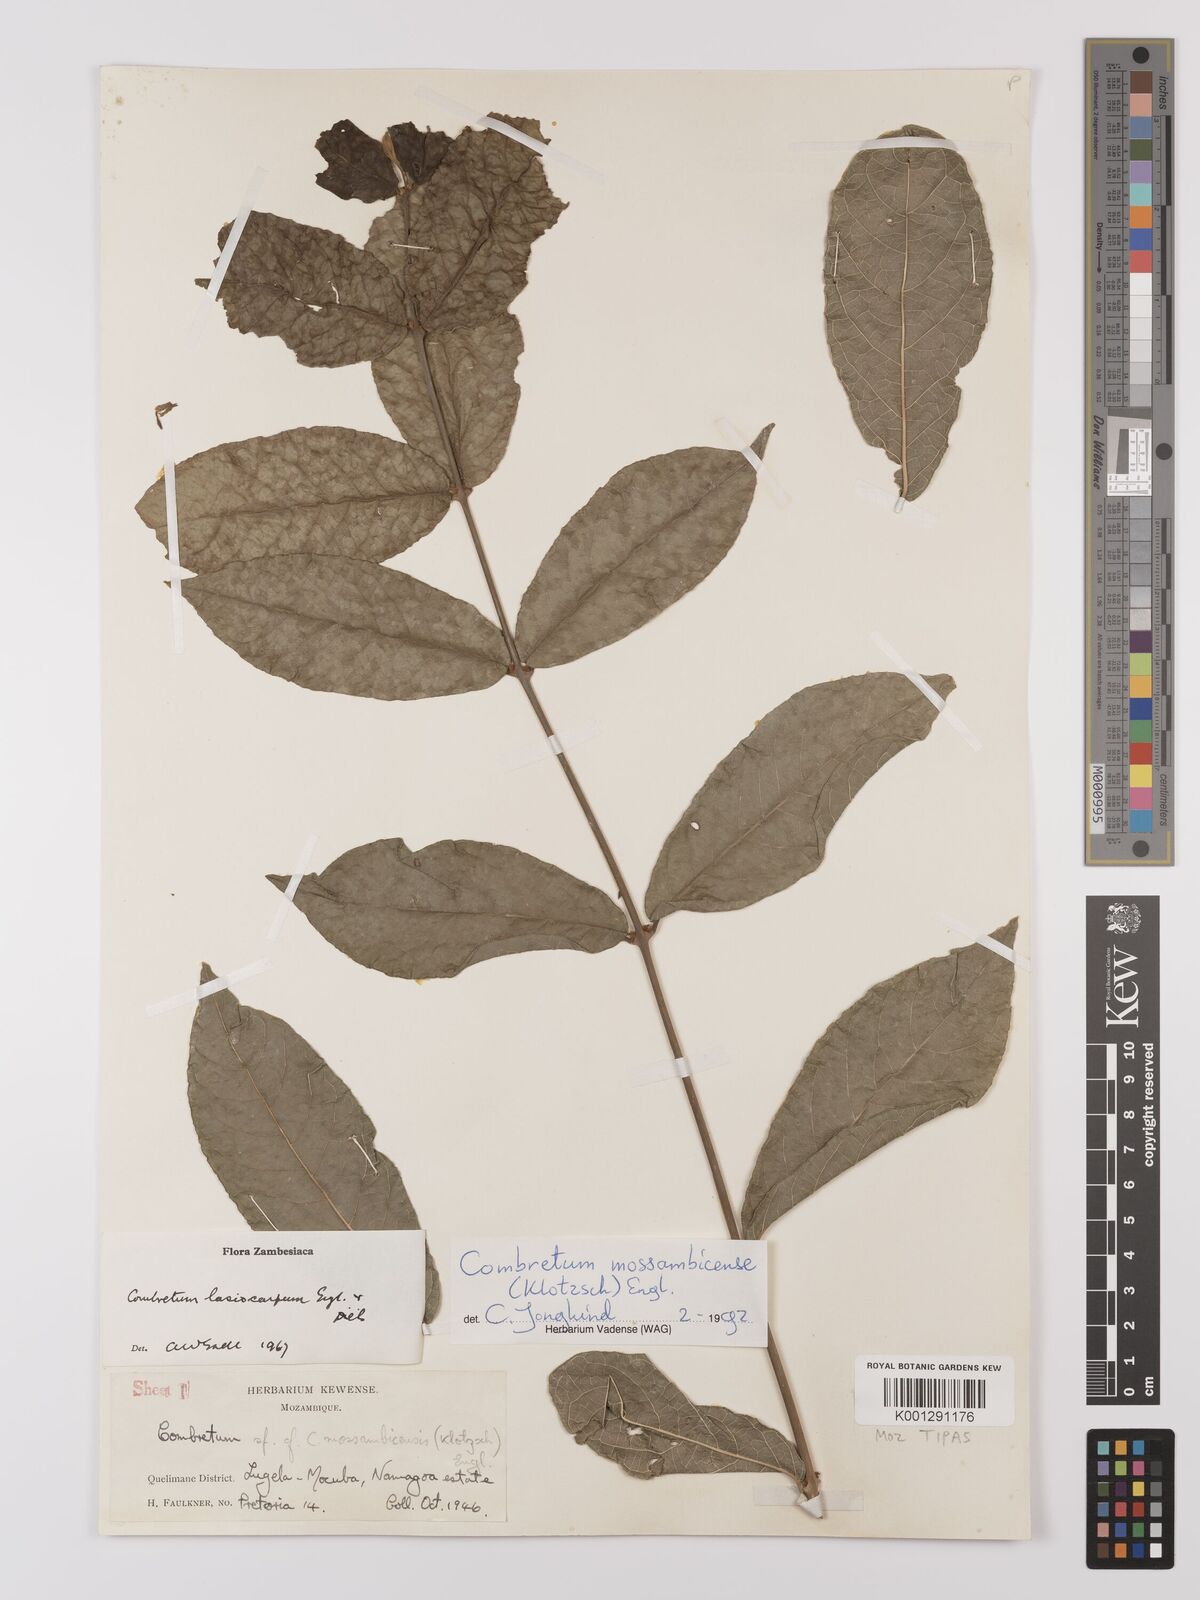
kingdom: Plantae
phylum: Tracheophyta
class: Magnoliopsida
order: Myrtales
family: Combretaceae
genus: Combretum
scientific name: Combretum mossambicense
